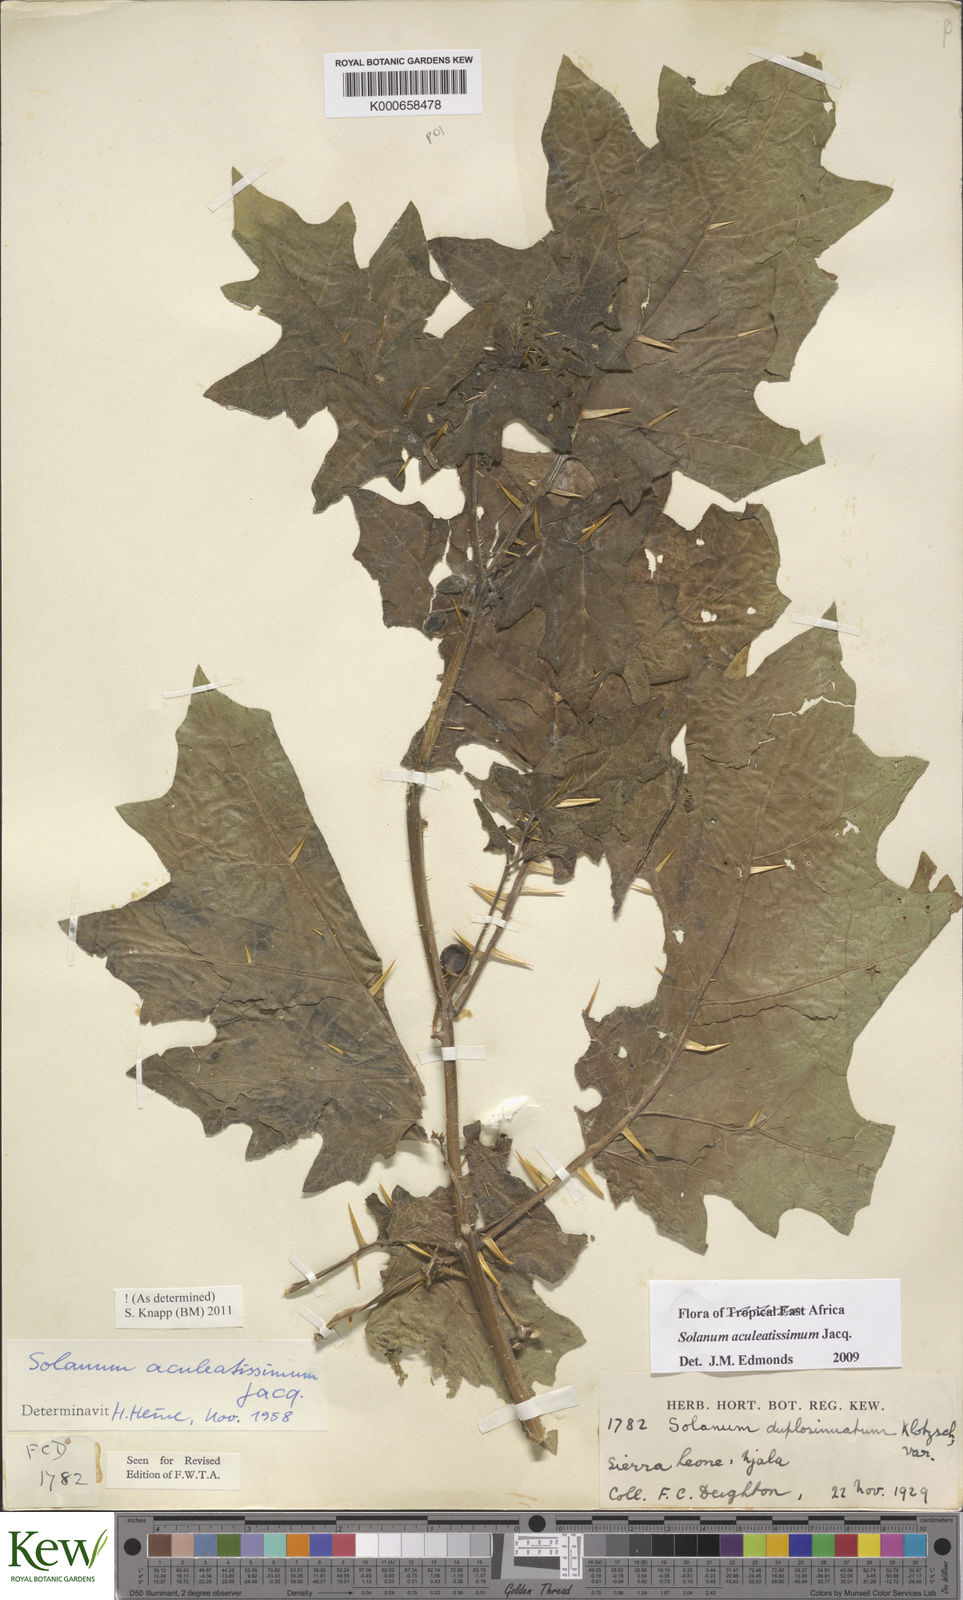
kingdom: Plantae
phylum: Tracheophyta
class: Magnoliopsida
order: Solanales
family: Solanaceae
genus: Solanum
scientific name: Solanum aculeatissimum
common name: Dutch eggplant
